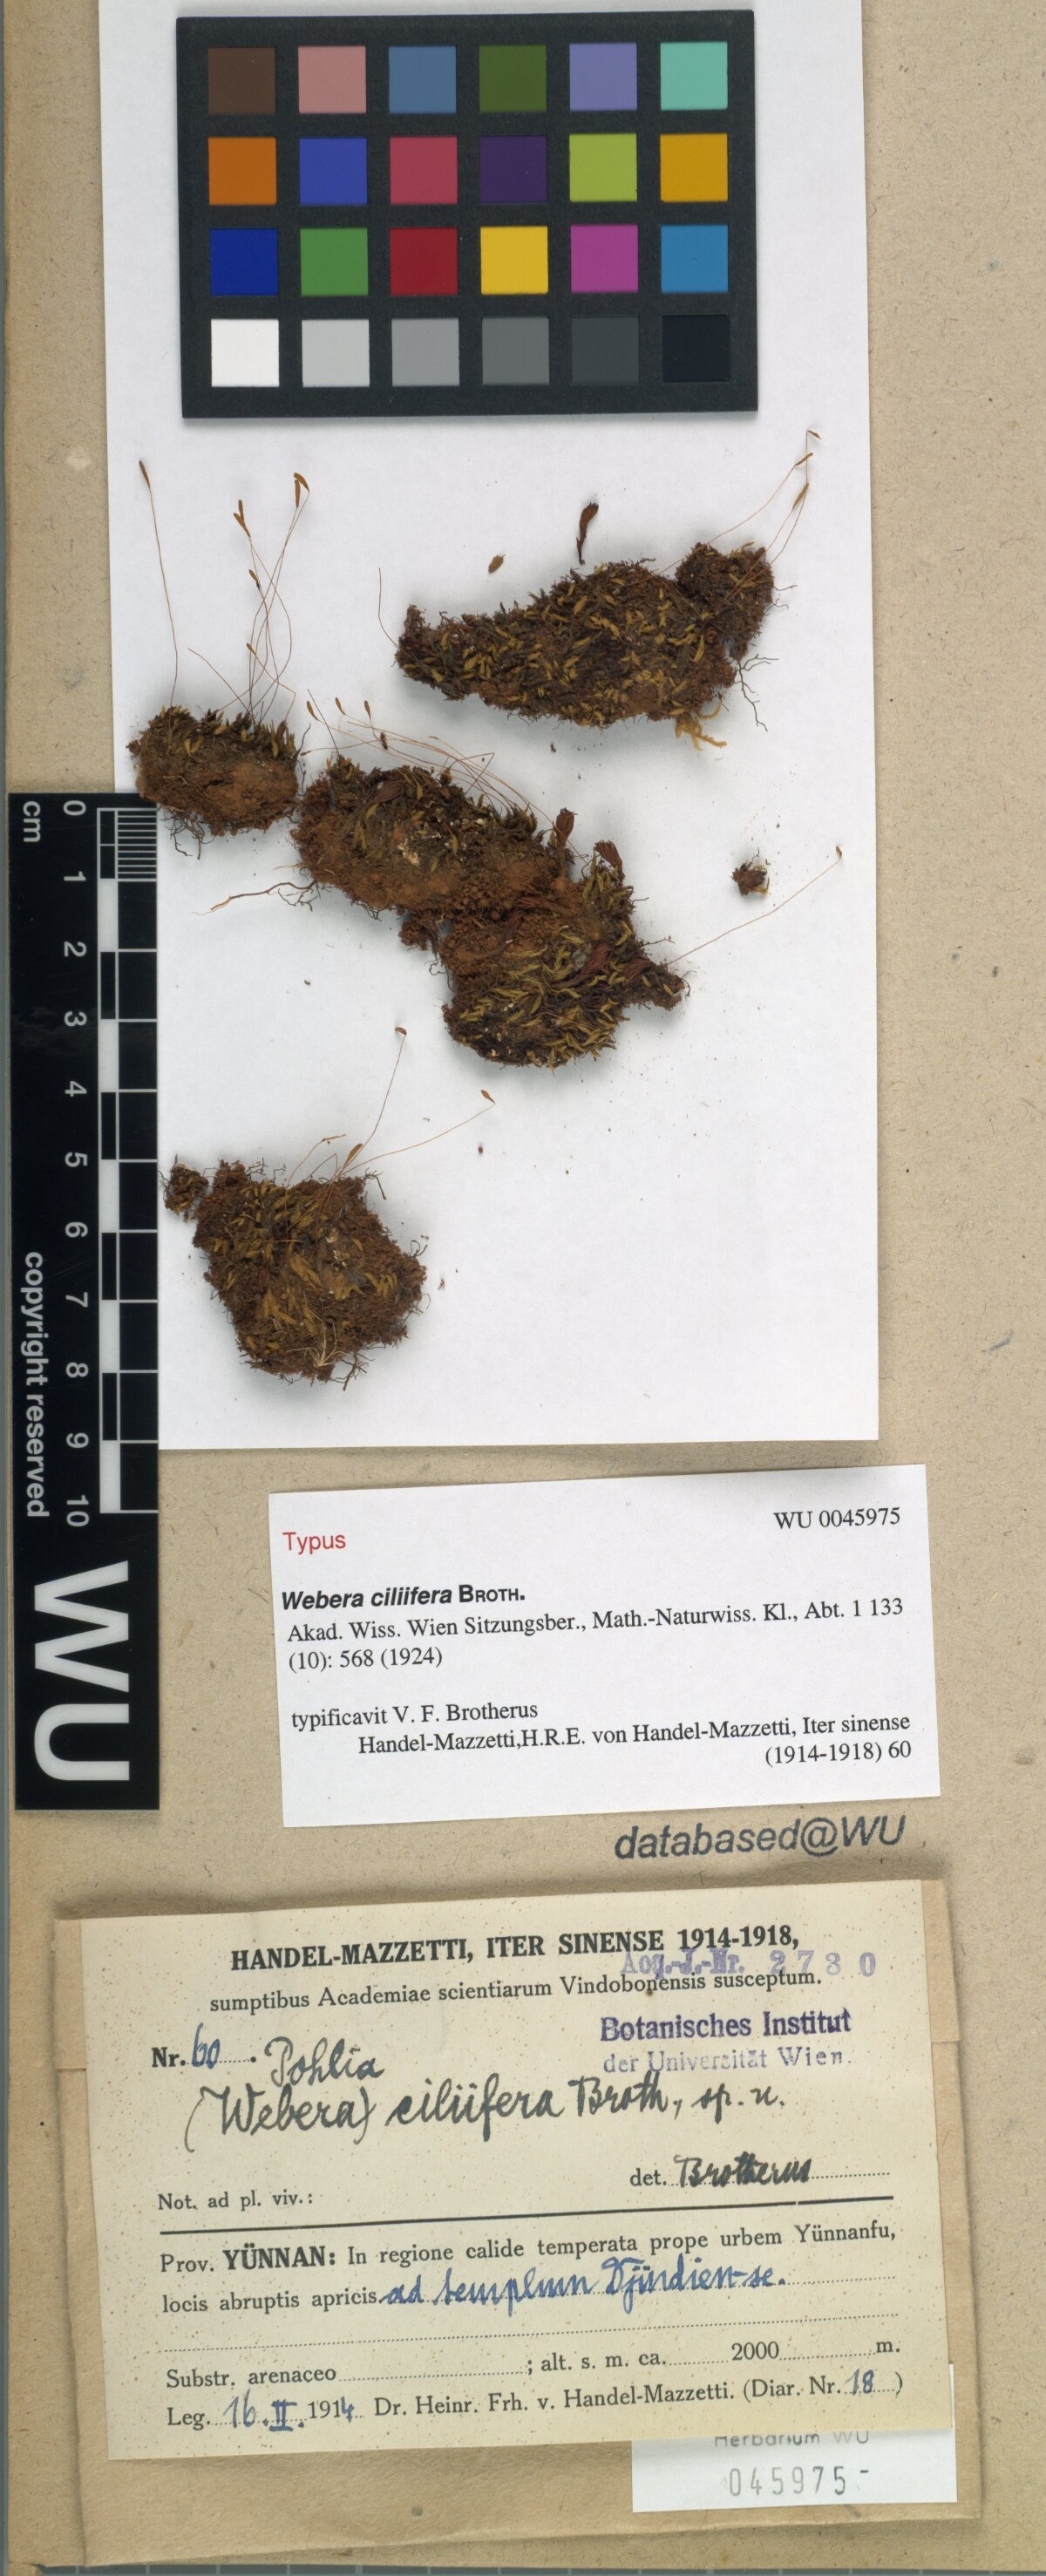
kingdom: Plantae
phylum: Bryophyta
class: Bryopsida
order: Bryales
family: Mniaceae
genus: Pohlia
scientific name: Pohlia elongata
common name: Long-fruited thread-moss
